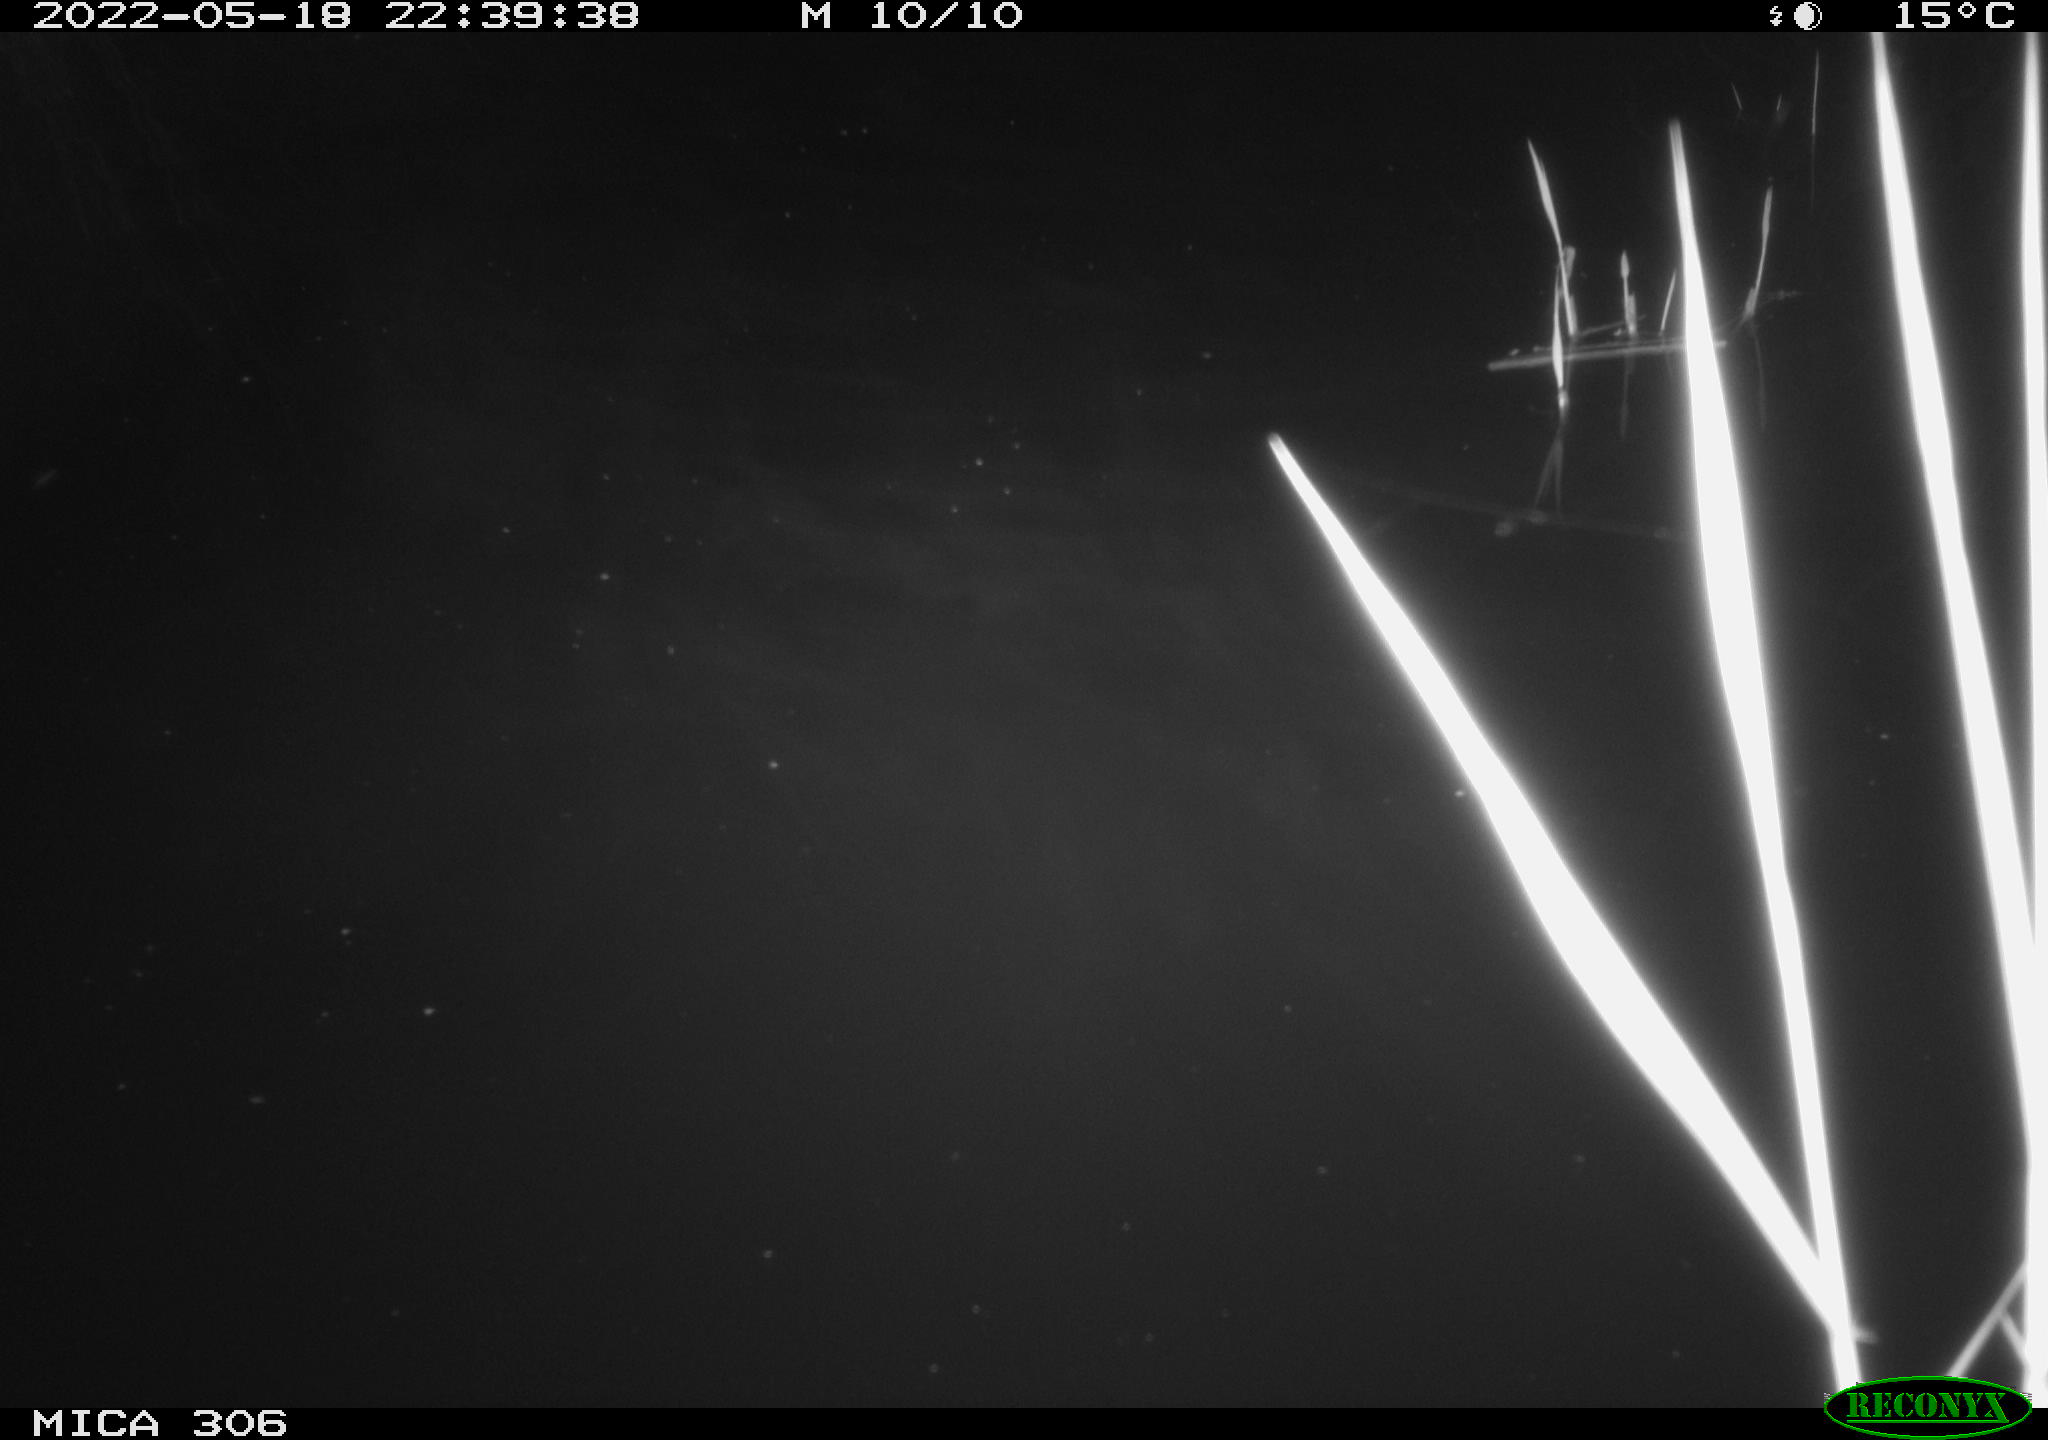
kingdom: Animalia
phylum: Chordata
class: Mammalia
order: Rodentia
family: Muridae
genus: Rattus
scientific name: Rattus norvegicus
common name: Brown rat
